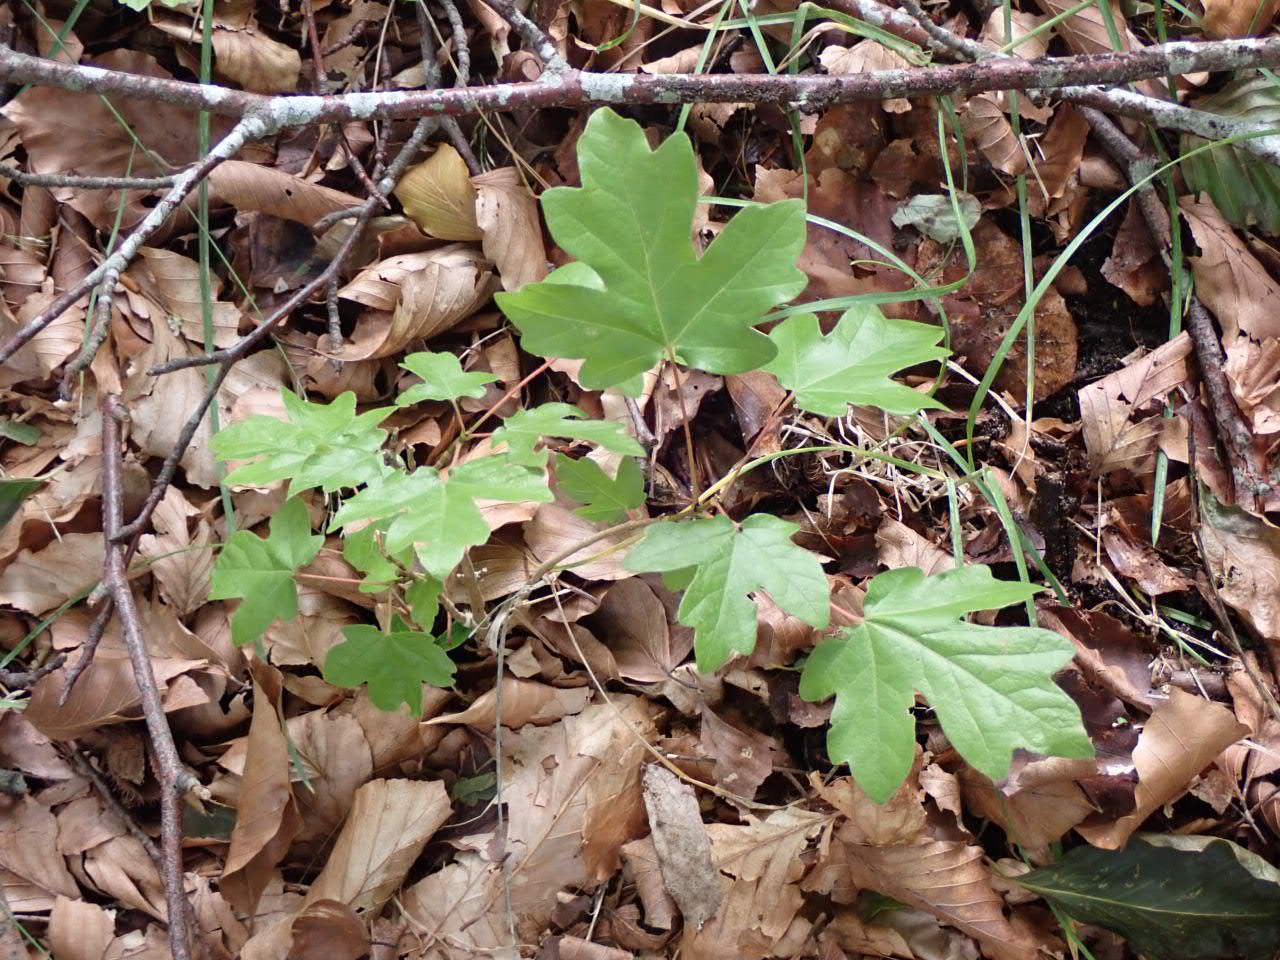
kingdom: Plantae
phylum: Tracheophyta
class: Magnoliopsida
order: Sapindales
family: Sapindaceae
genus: Acer
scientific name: Acer campestre
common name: Navr
